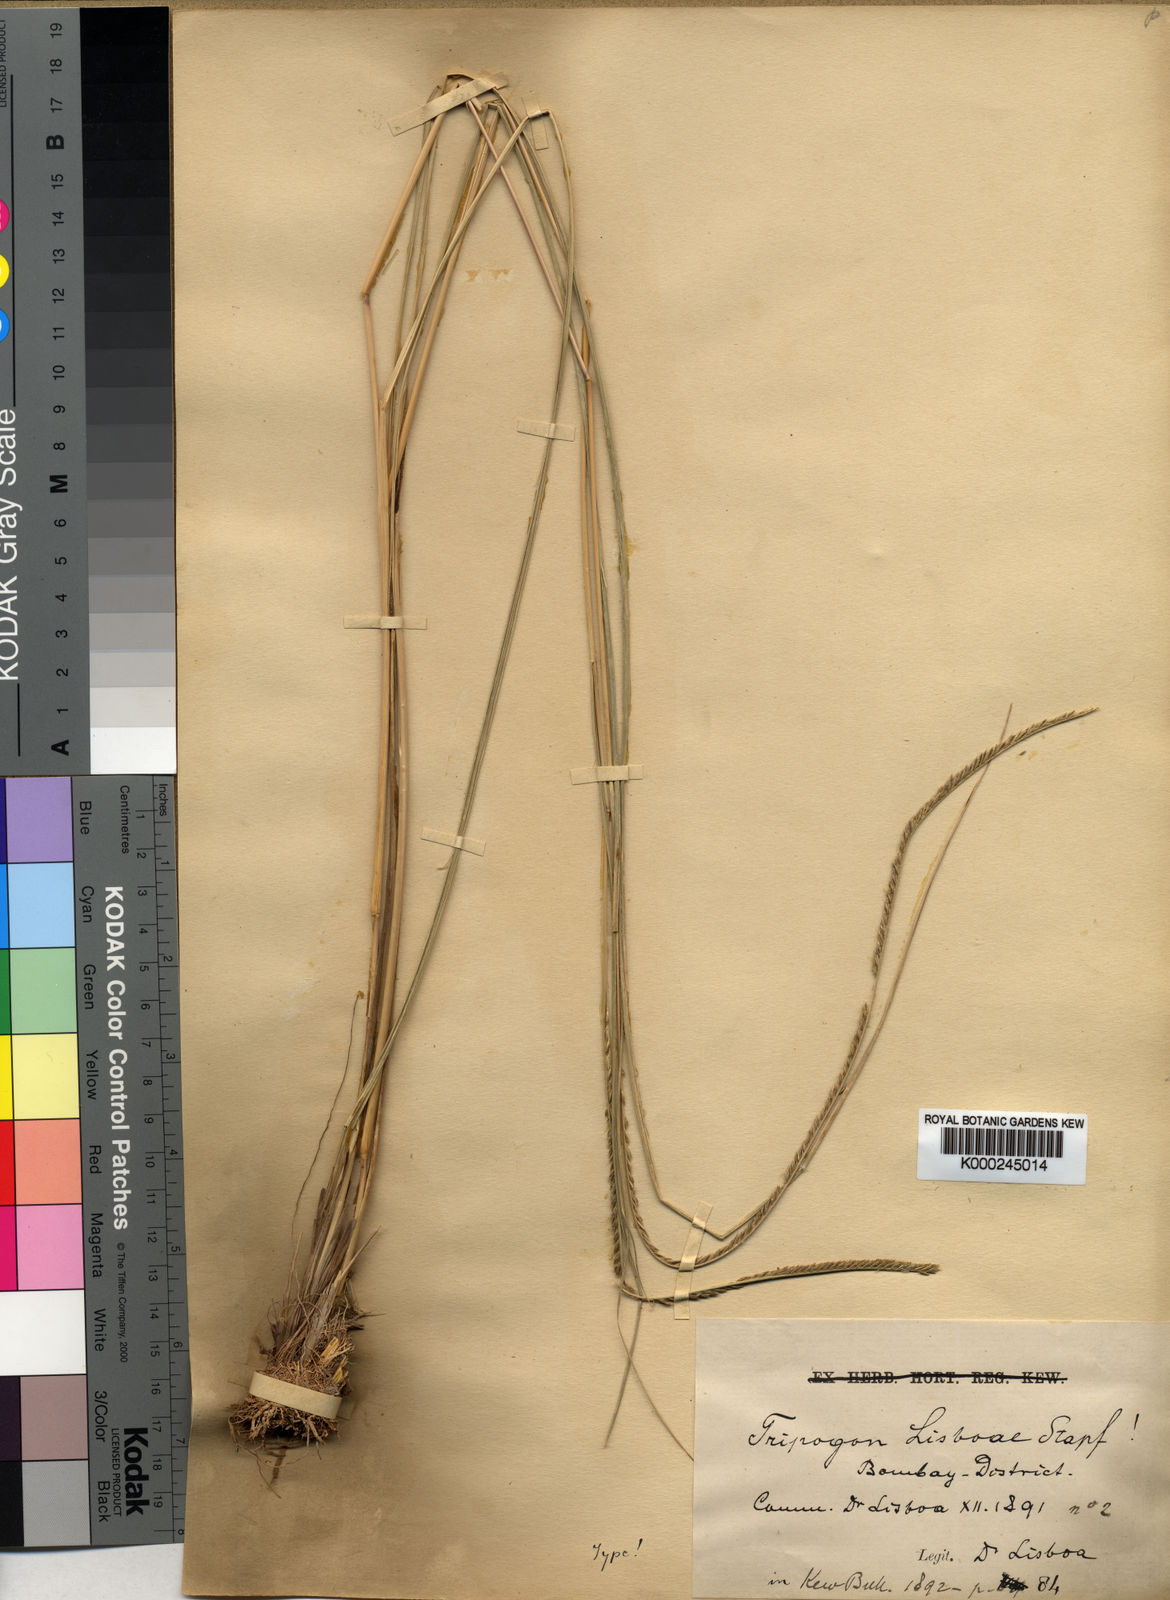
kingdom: Plantae
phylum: Tracheophyta
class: Liliopsida
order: Poales
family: Poaceae
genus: Tripogon
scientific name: Tripogon lisboae
